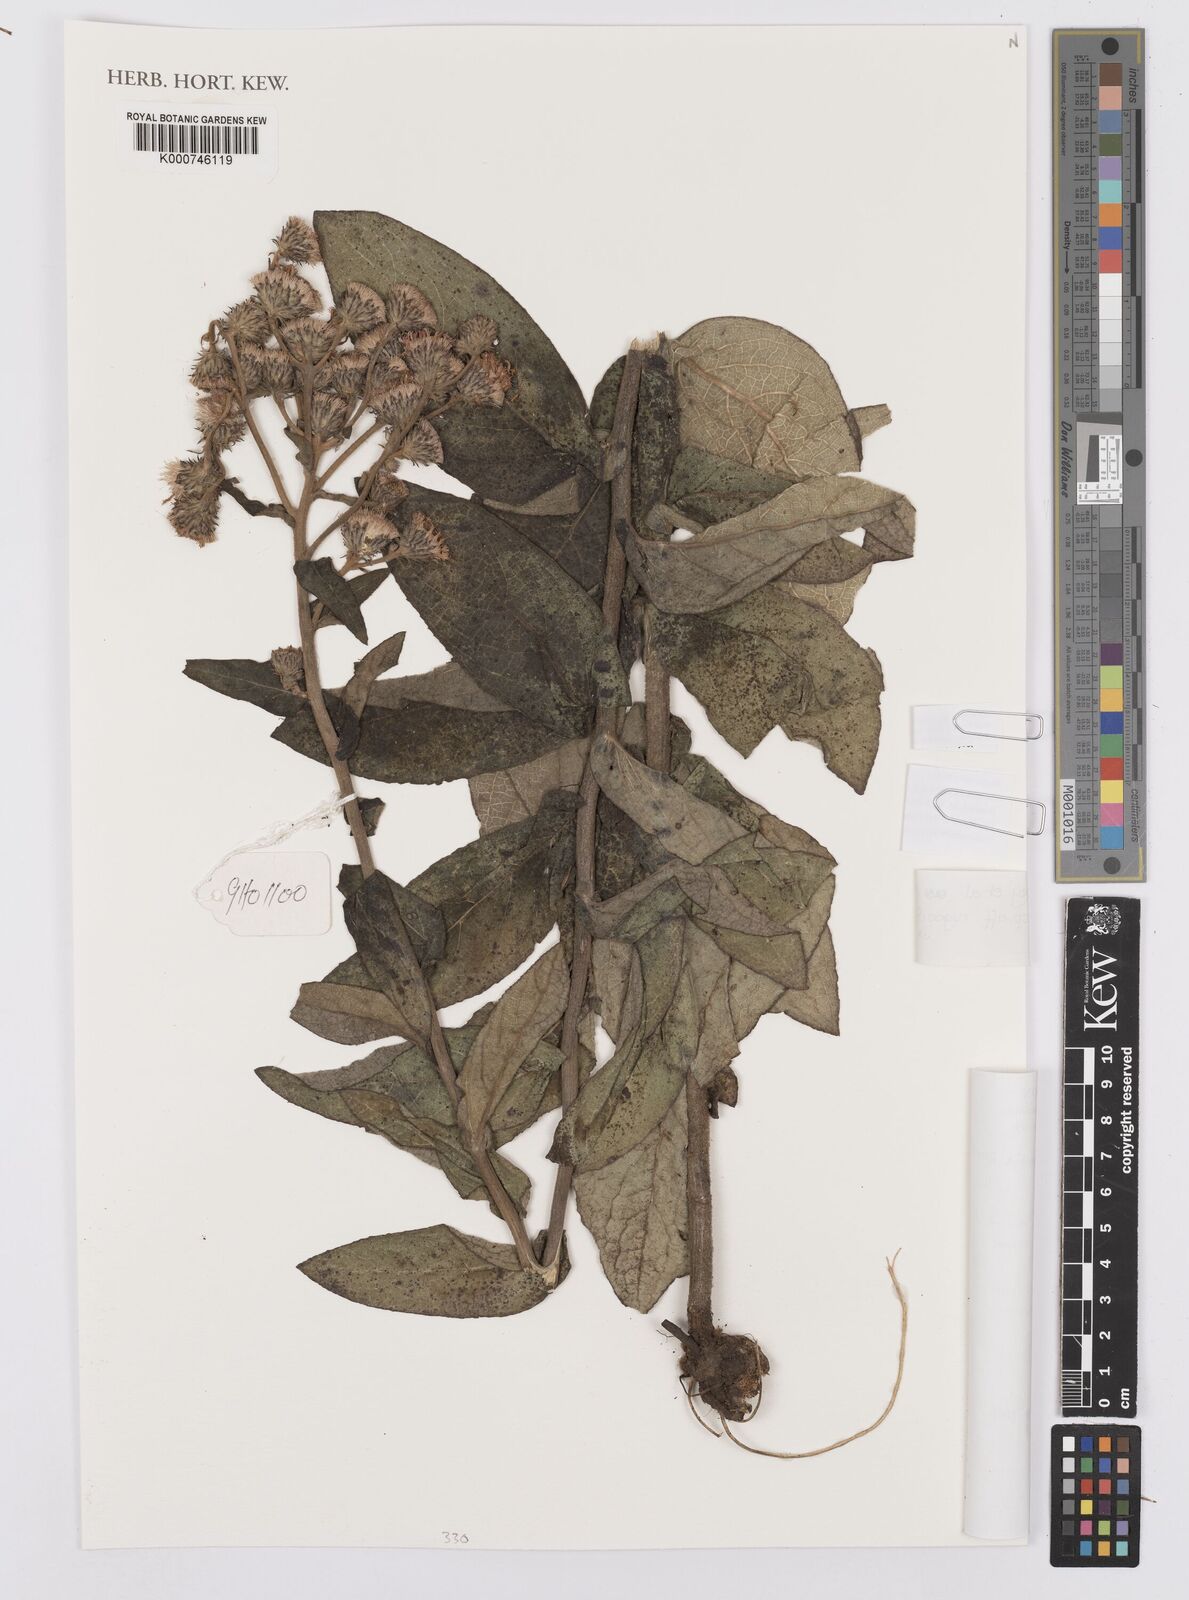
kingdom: Plantae
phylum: Tracheophyta
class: Magnoliopsida
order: Asterales
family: Asteraceae
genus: Orbivestus
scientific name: Orbivestus turbinata
